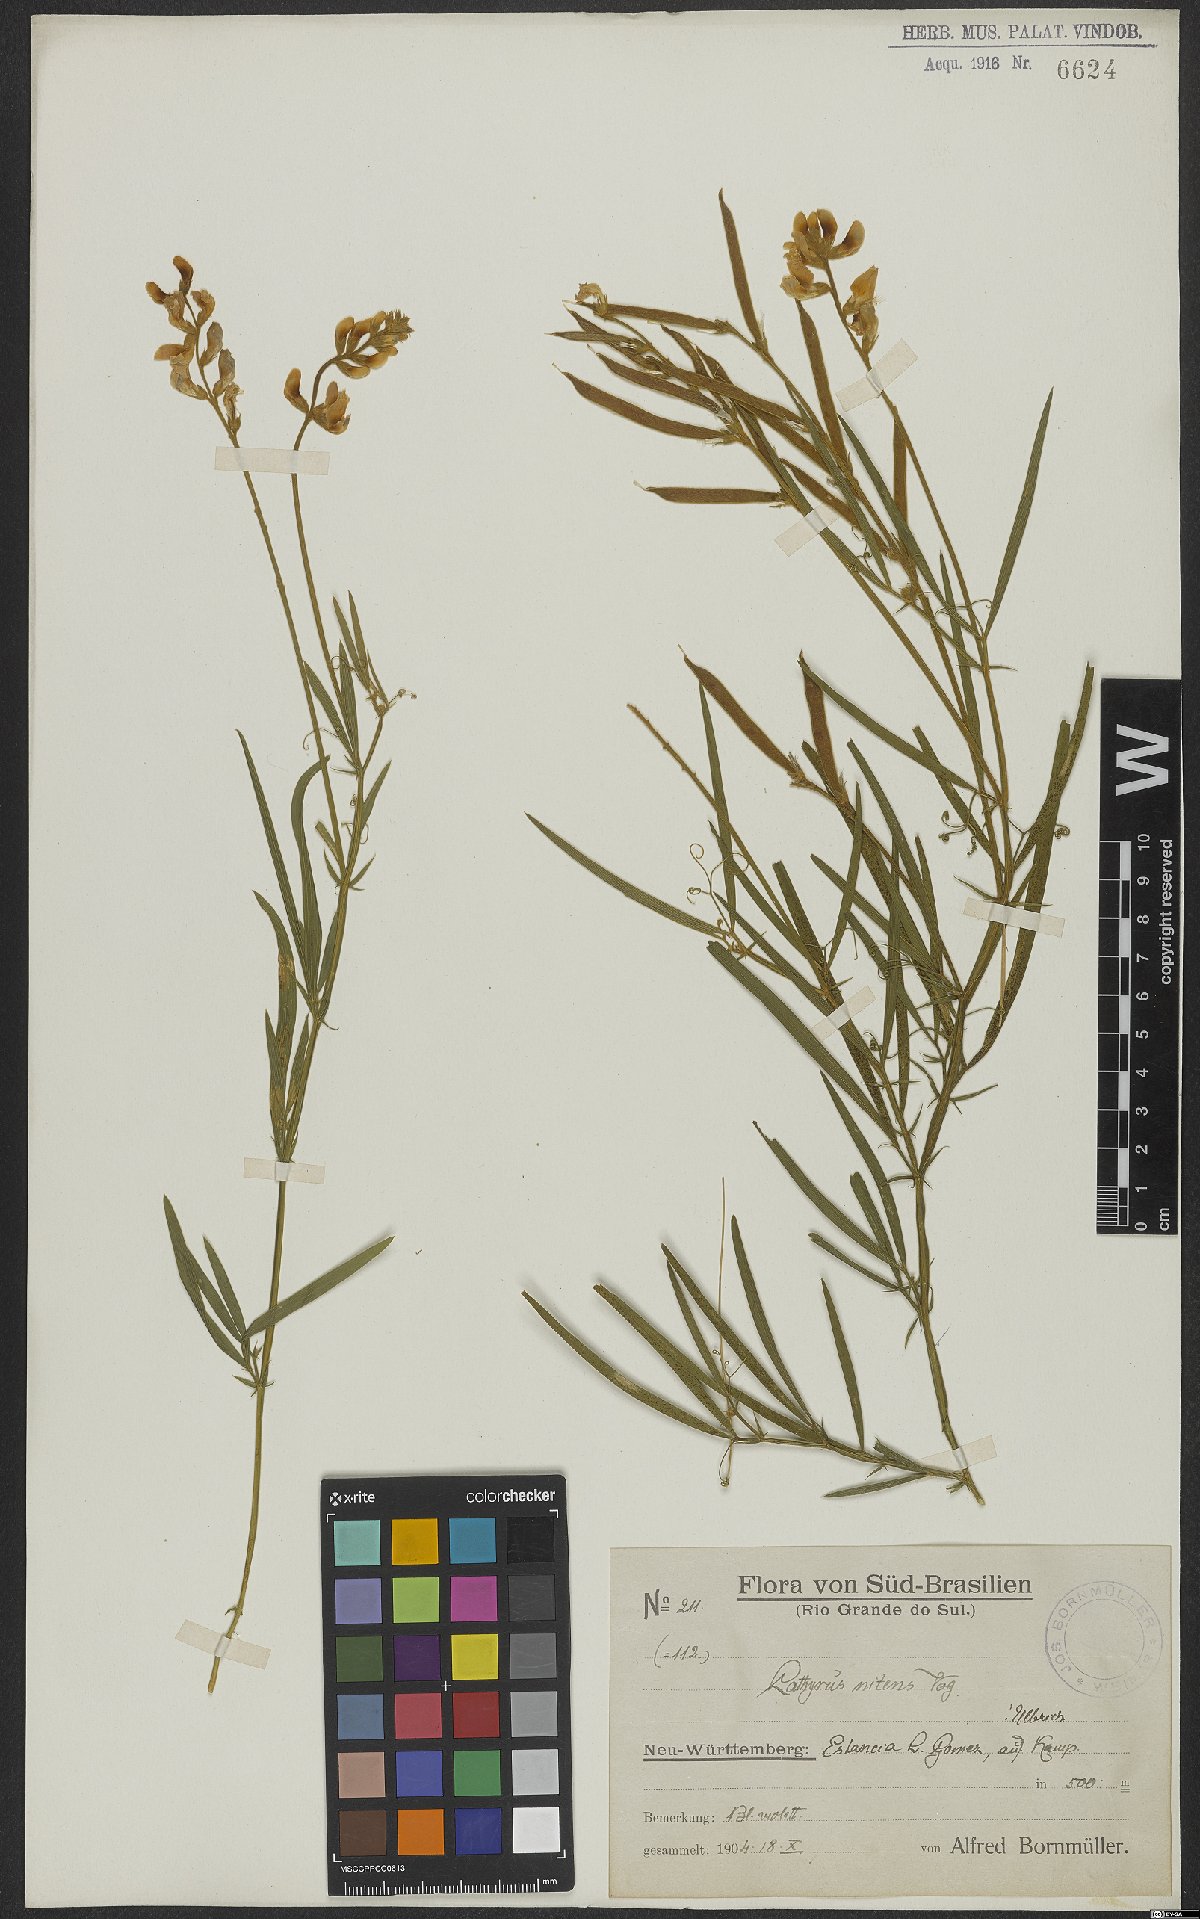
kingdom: Plantae
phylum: Tracheophyta
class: Magnoliopsida
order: Fabales
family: Fabaceae
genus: Lathyrus
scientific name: Lathyrus nitens
